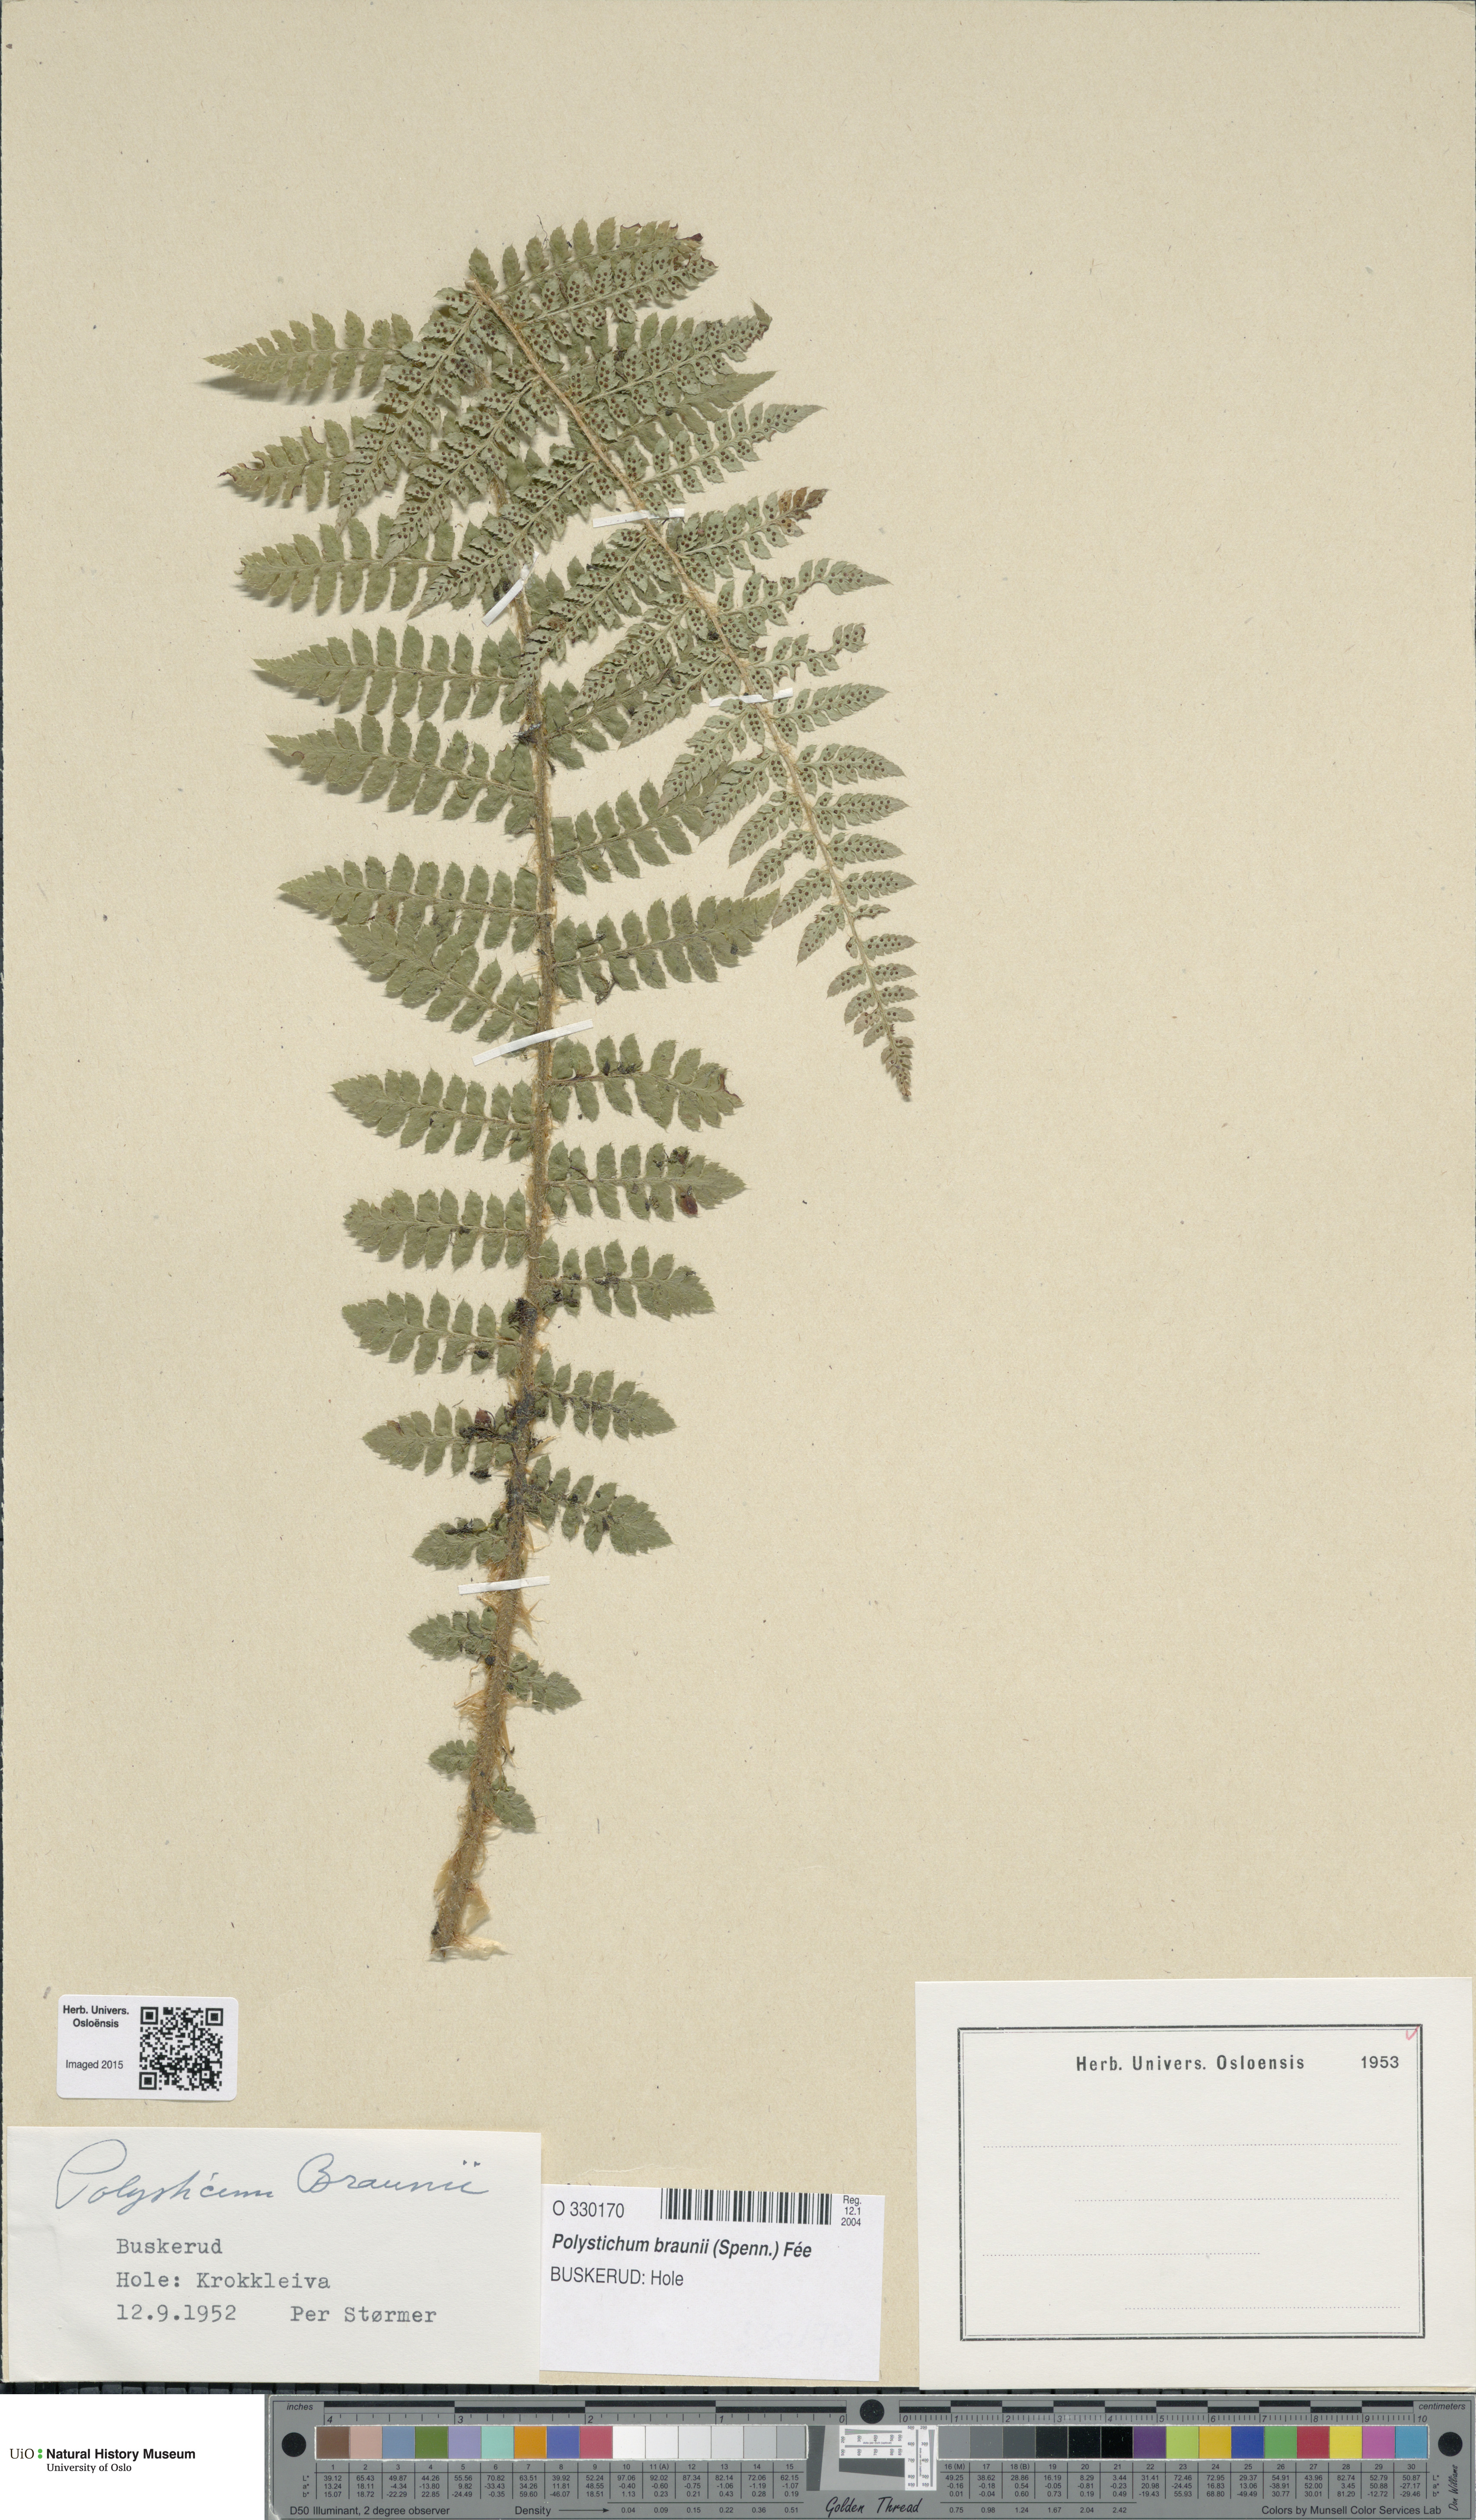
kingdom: Plantae
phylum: Tracheophyta
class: Polypodiopsida
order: Polypodiales
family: Dryopteridaceae
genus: Polystichum
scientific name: Polystichum braunii
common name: Braun's holly fern
